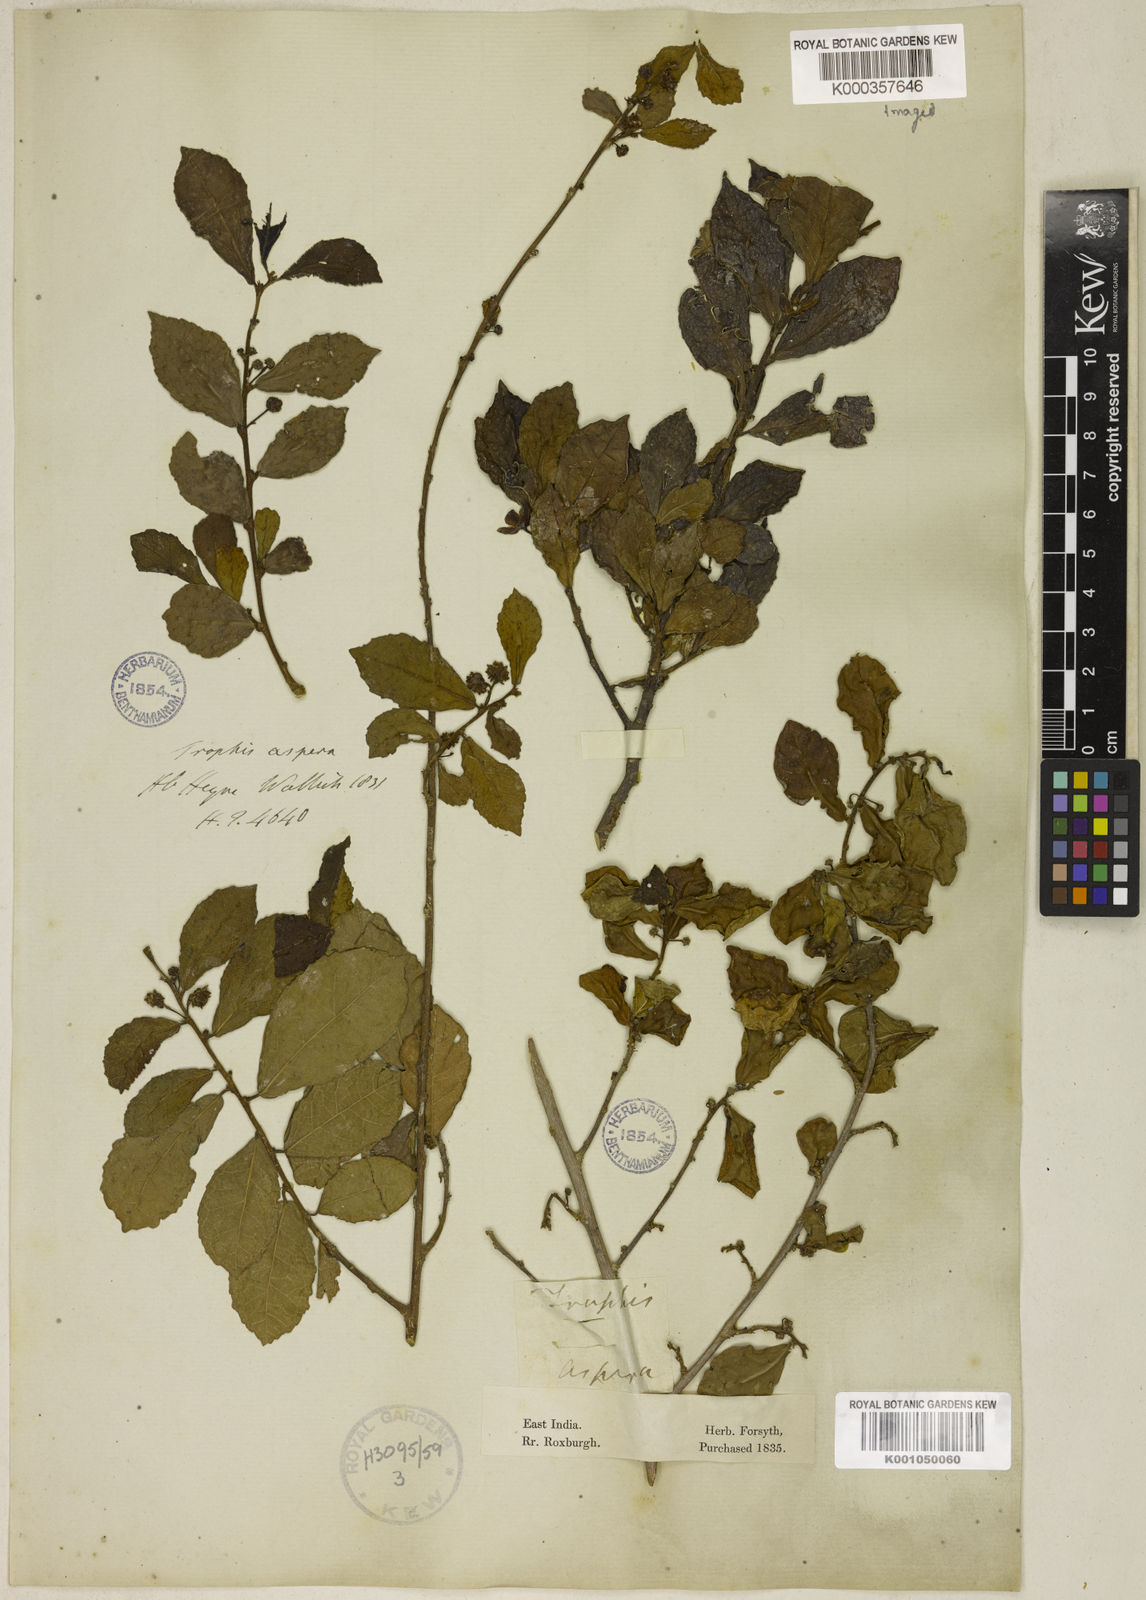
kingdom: Plantae
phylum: Tracheophyta
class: Magnoliopsida
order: Rosales
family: Moraceae
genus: Streblus
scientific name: Streblus asper
